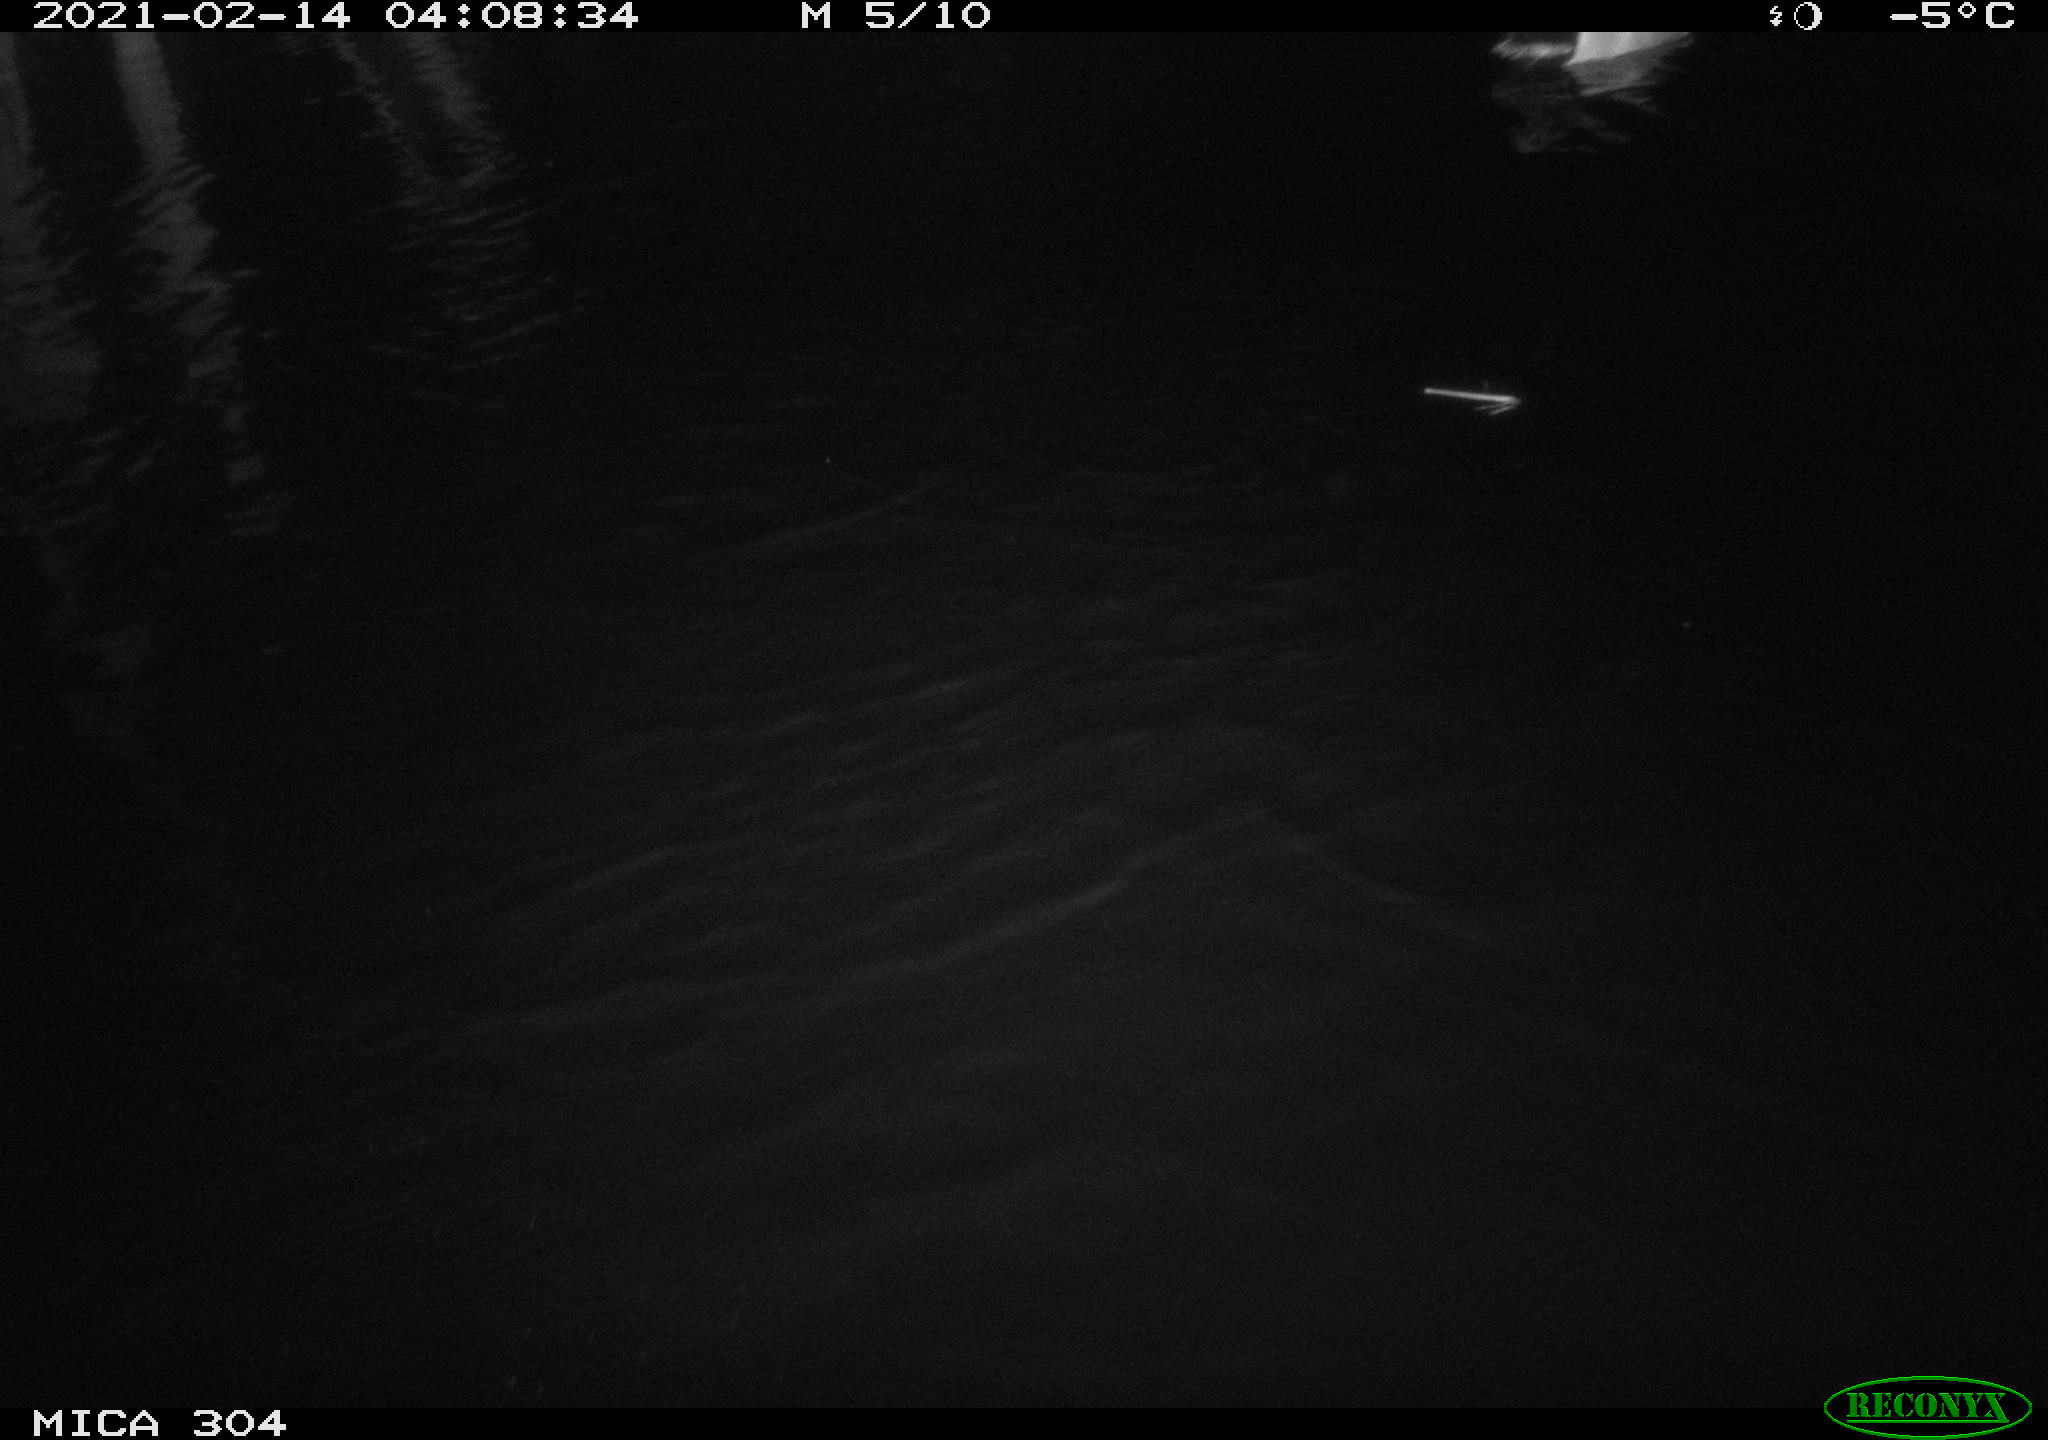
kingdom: Animalia
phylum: Chordata
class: Aves
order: Anseriformes
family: Anatidae
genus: Anas
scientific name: Anas platyrhynchos
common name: Mallard
